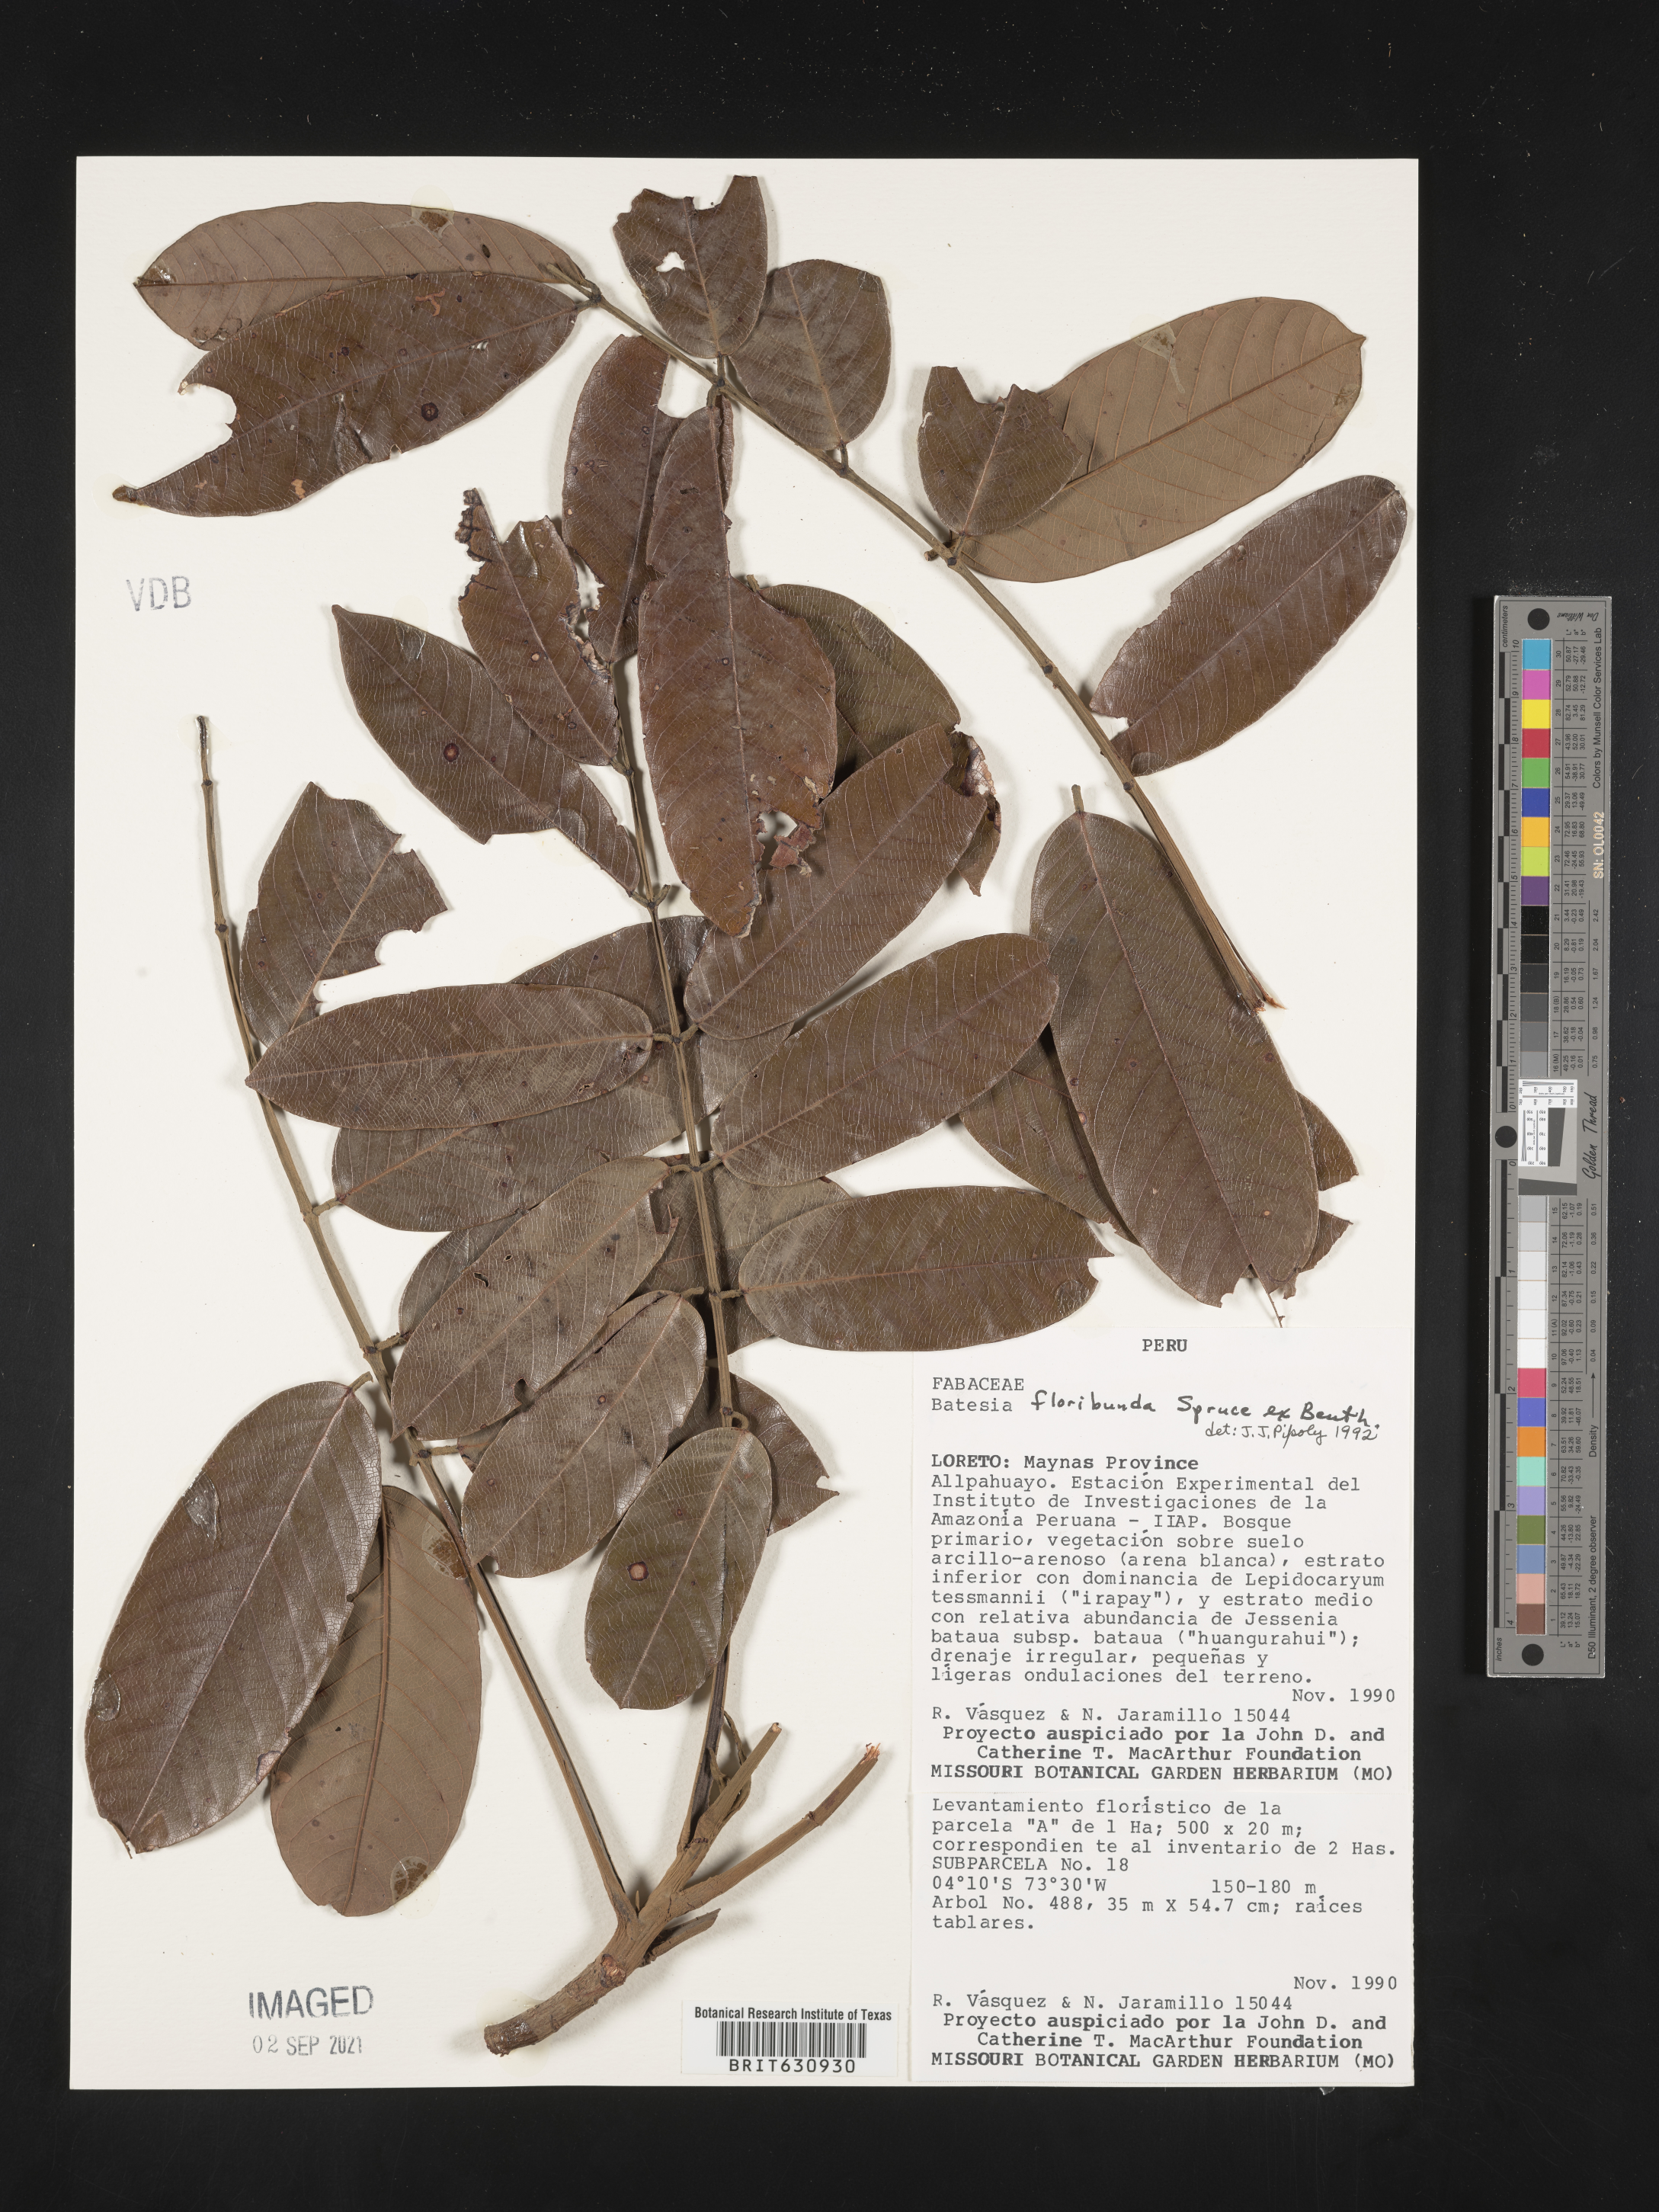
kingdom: Plantae
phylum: Tracheophyta
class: Magnoliopsida
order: Fabales
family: Fabaceae
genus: Batesia
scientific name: Batesia
